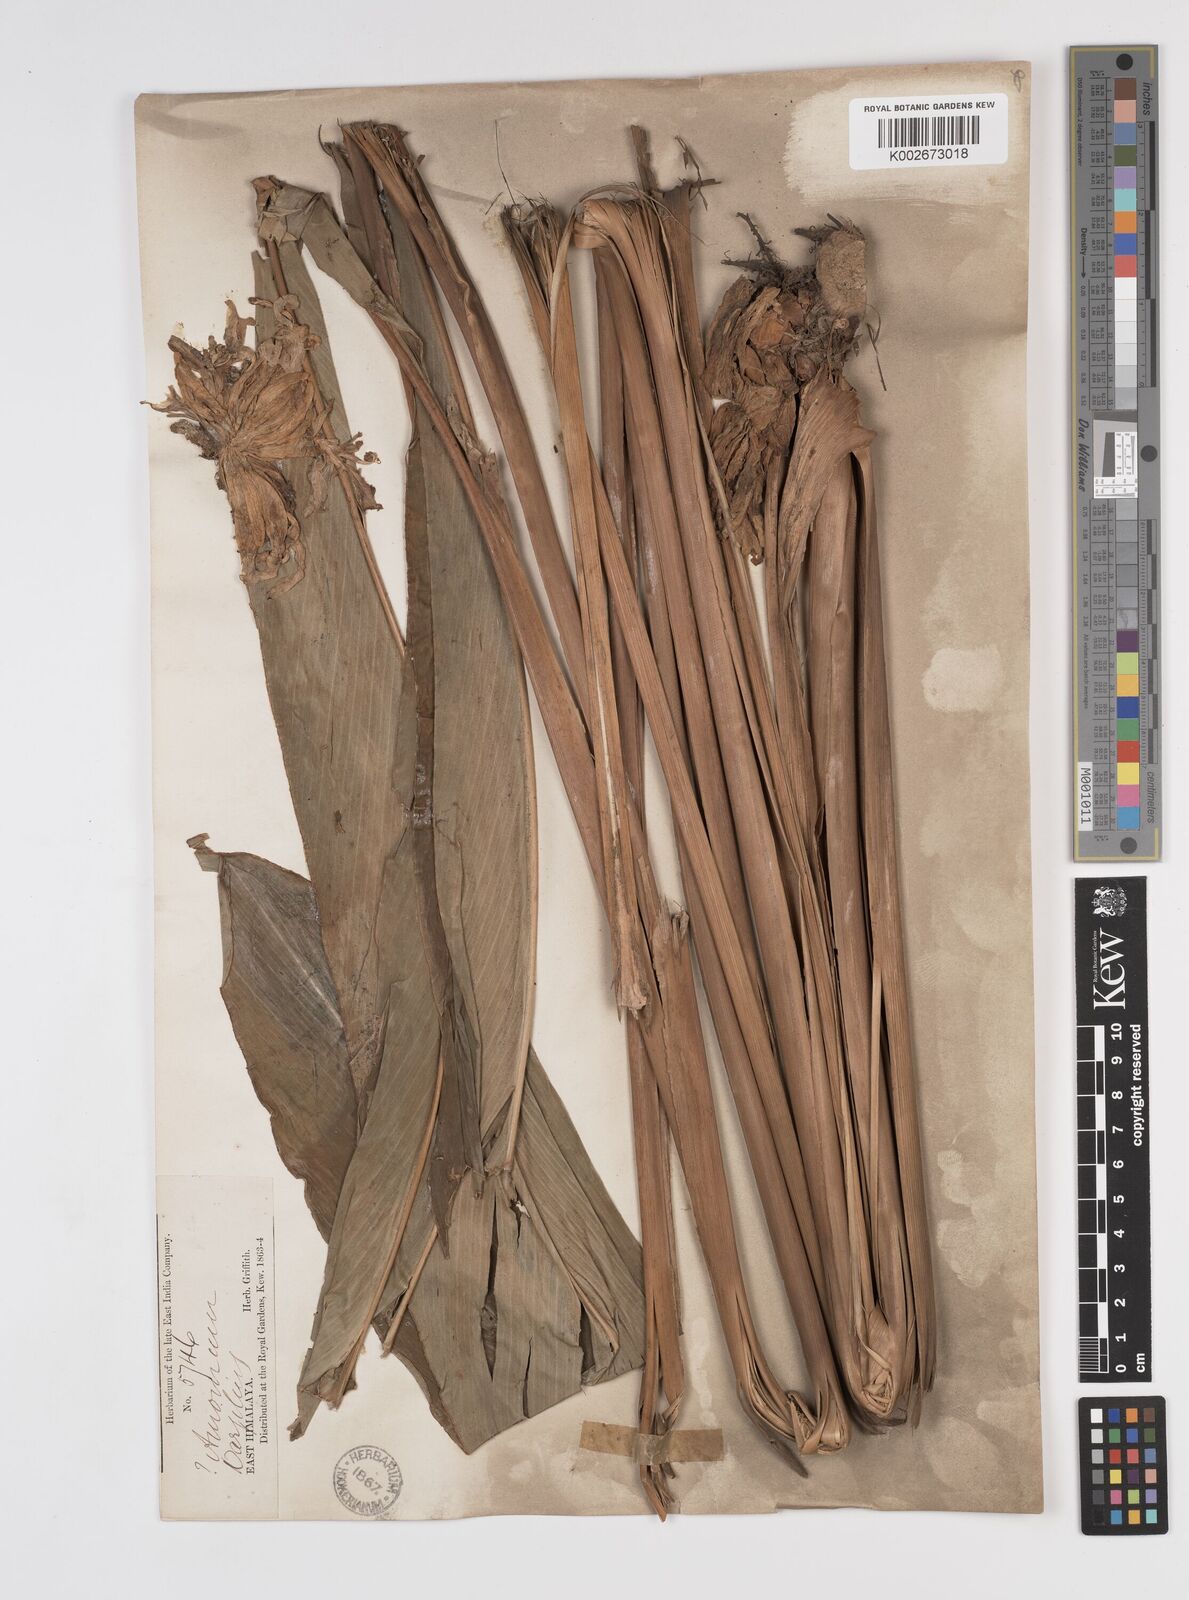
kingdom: Plantae
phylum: Tracheophyta
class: Liliopsida
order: Zingiberales
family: Zingiberaceae
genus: Amomum
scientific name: Amomum dealbatum
